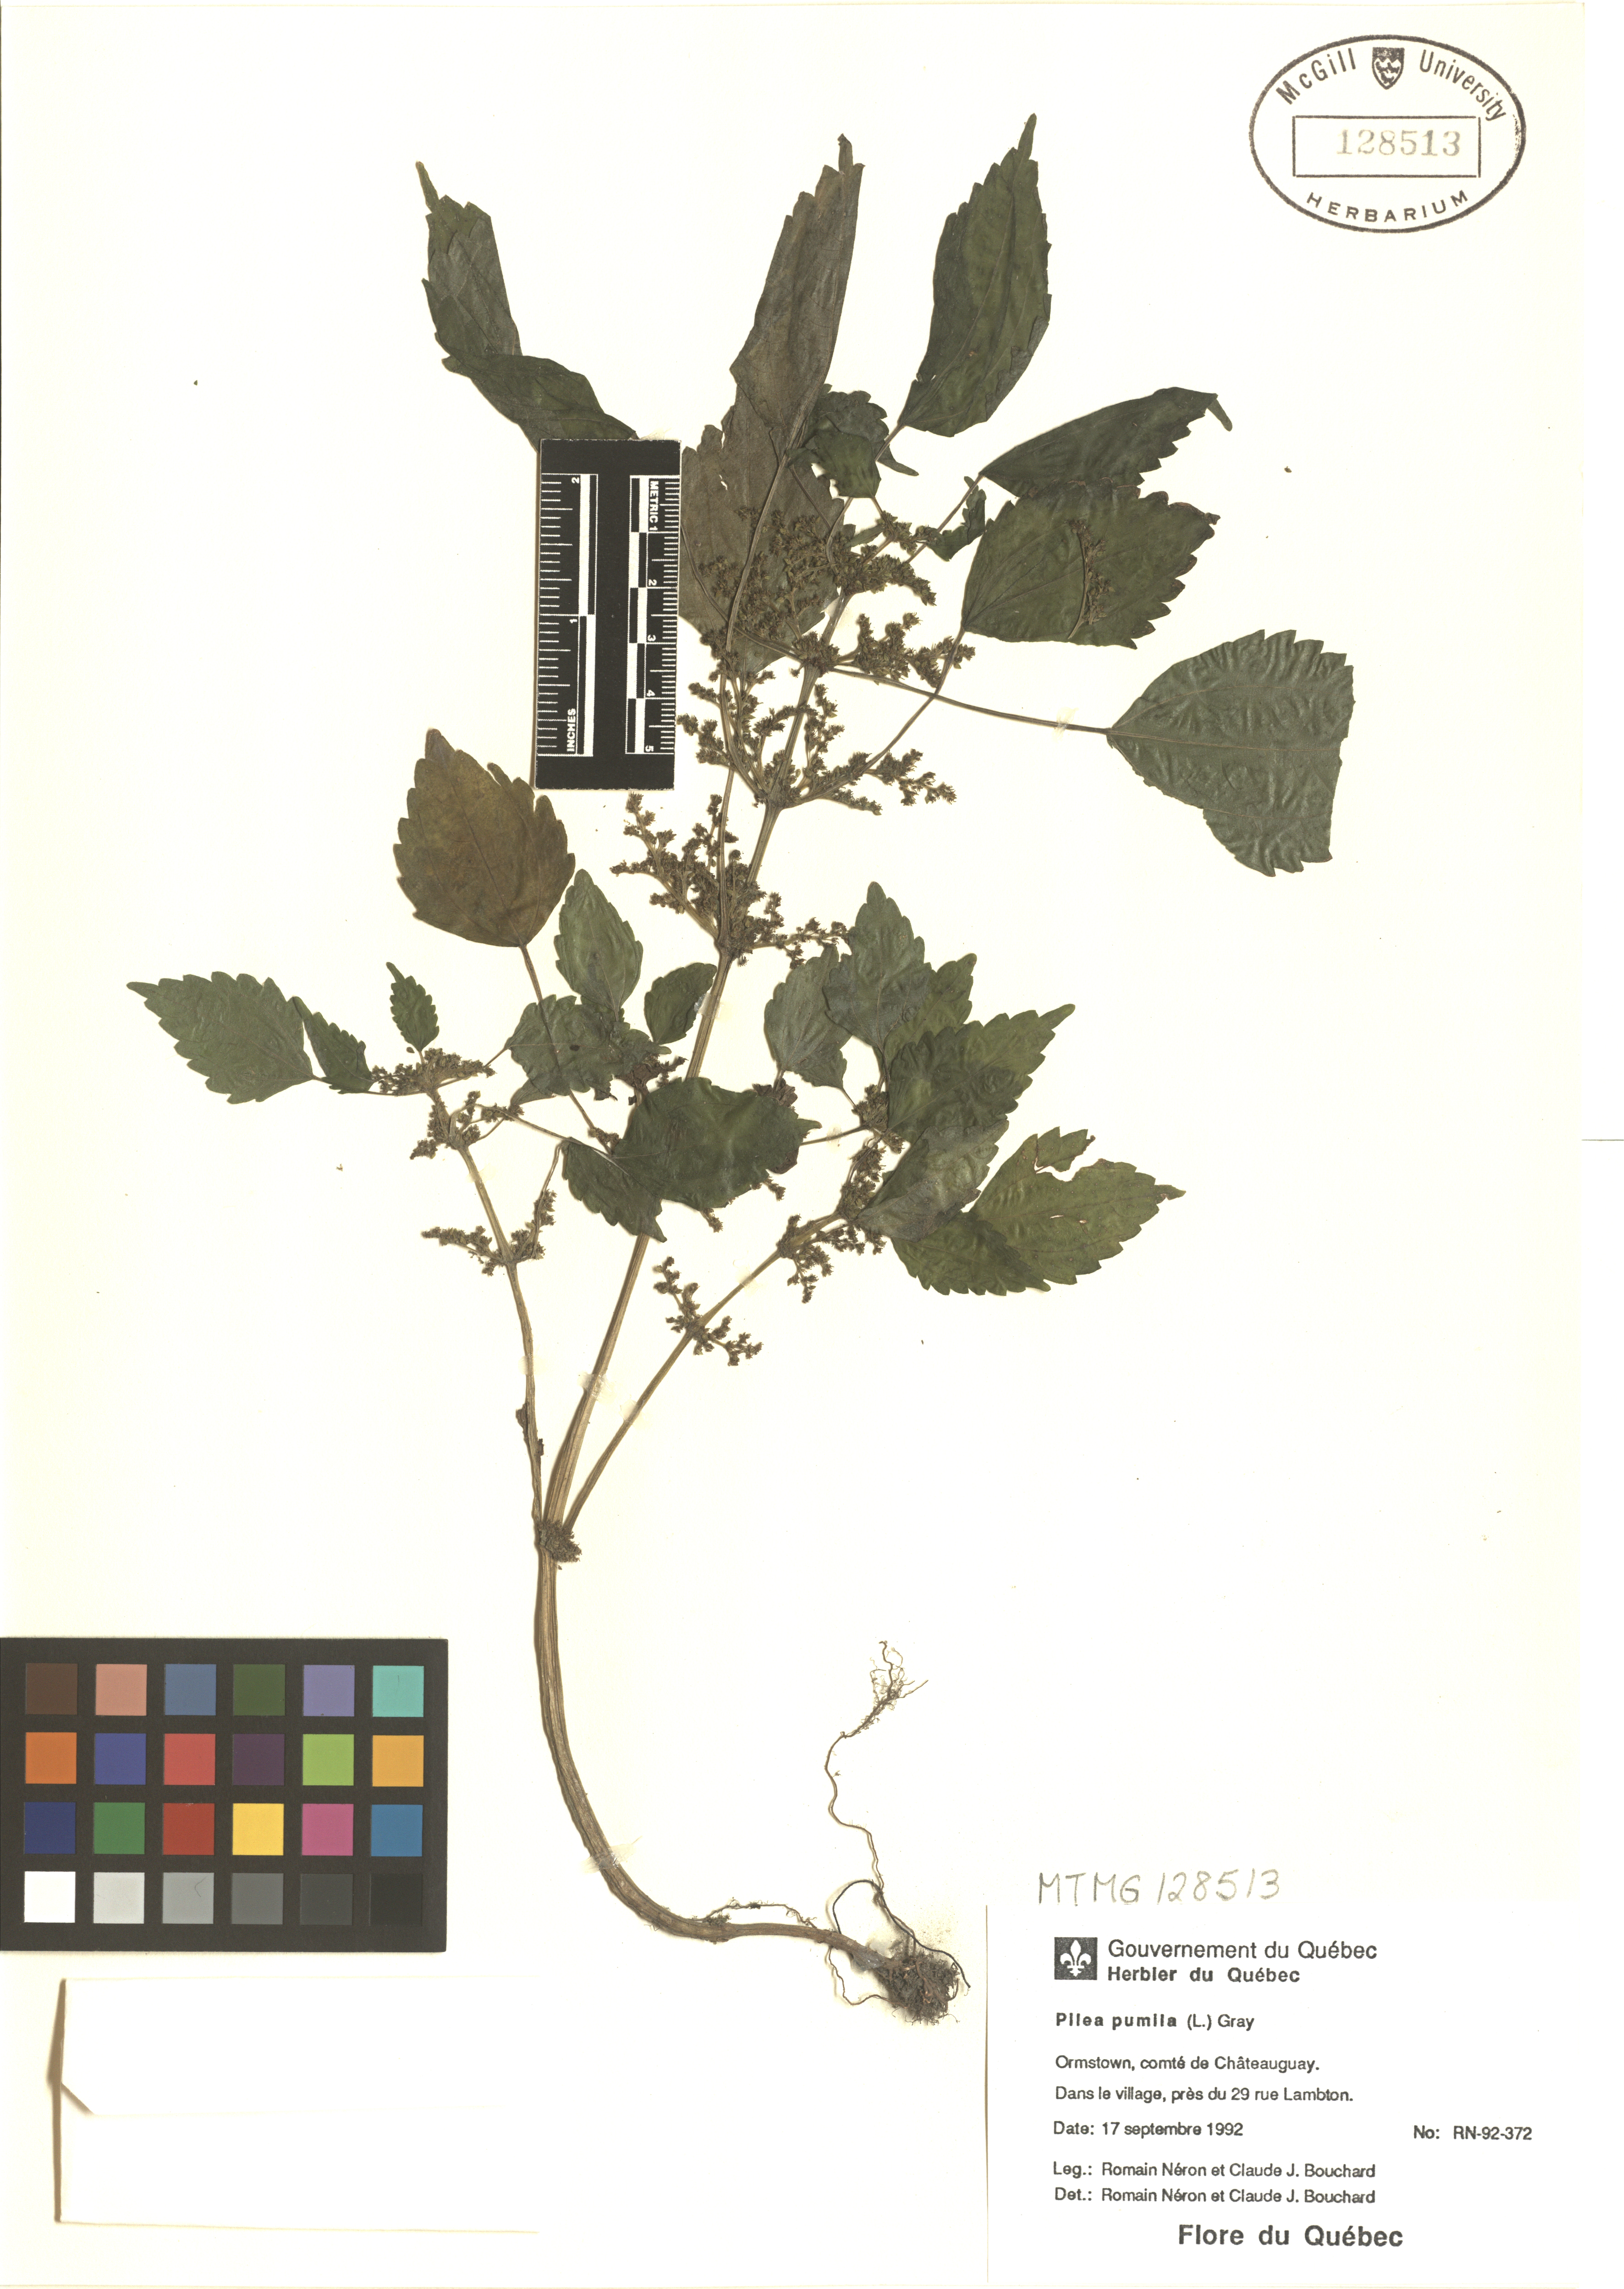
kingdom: Plantae
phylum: Tracheophyta
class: Magnoliopsida
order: Rosales
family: Urticaceae
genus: Pilea
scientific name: Pilea pumila
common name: Clearweed
